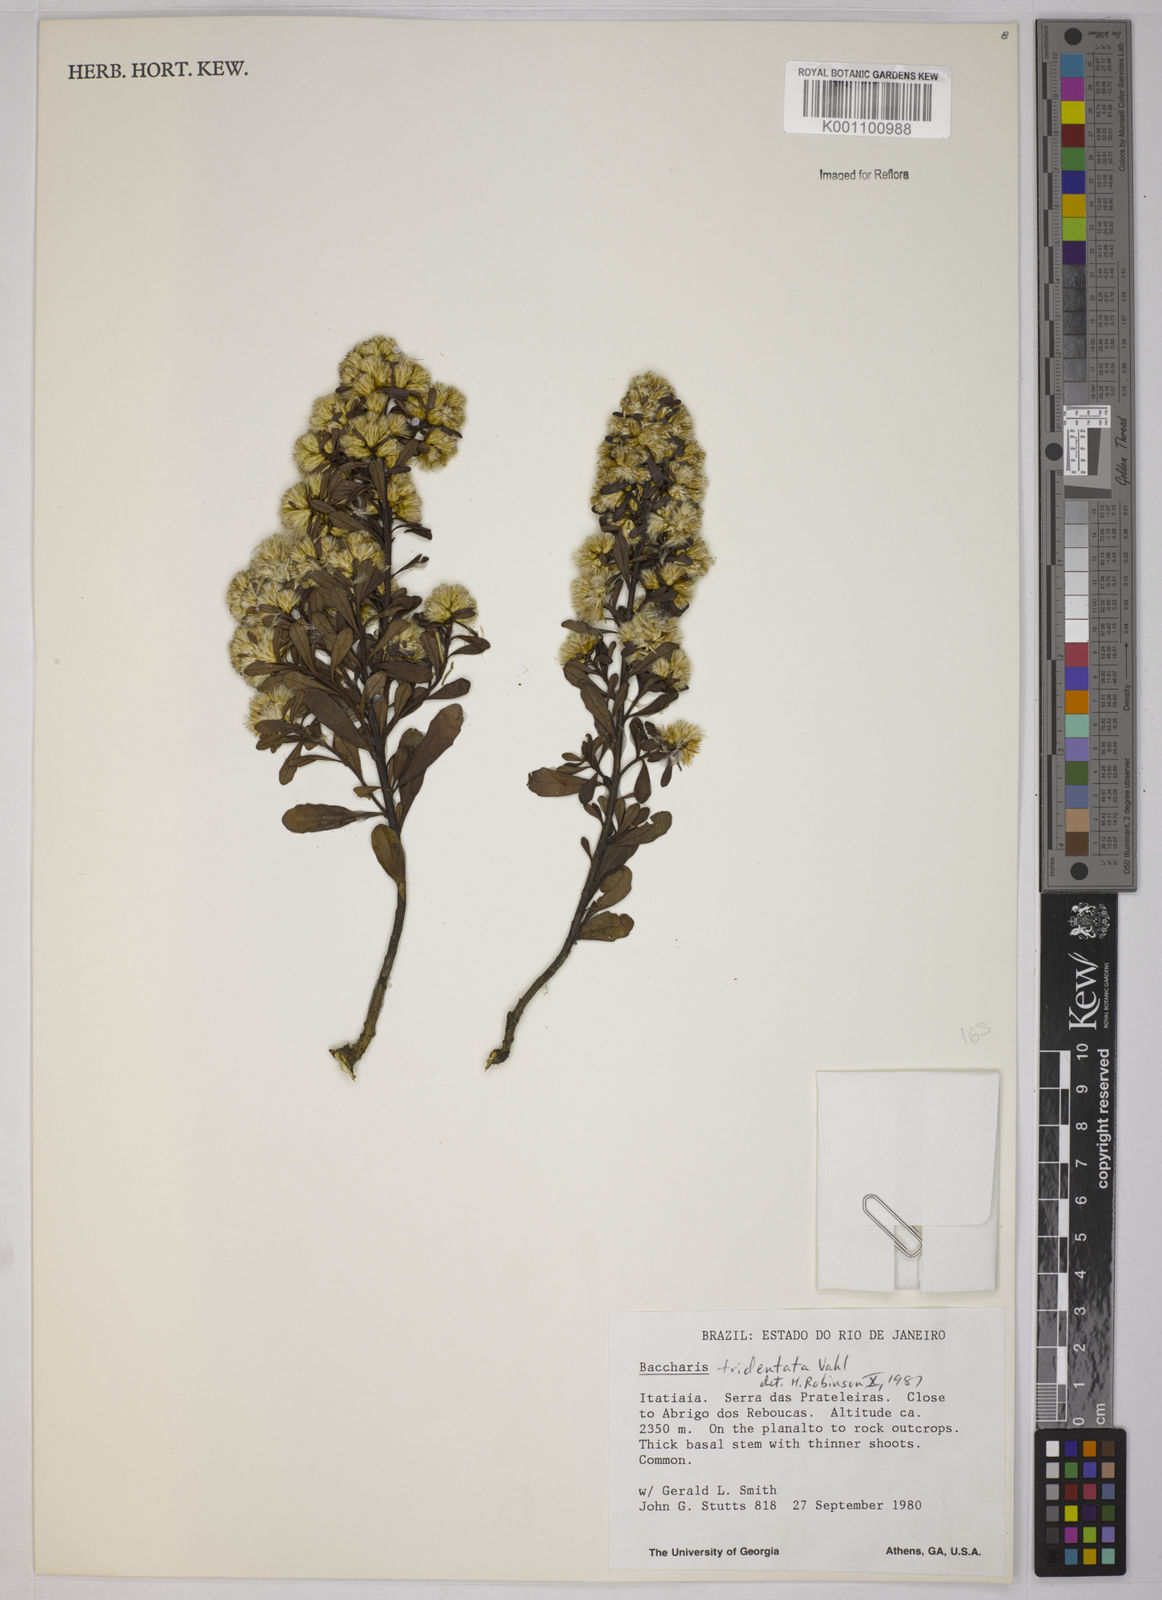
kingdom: Plantae
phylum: Tracheophyta
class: Magnoliopsida
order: Asterales
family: Asteraceae
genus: Baccharis
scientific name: Baccharis tridentata
